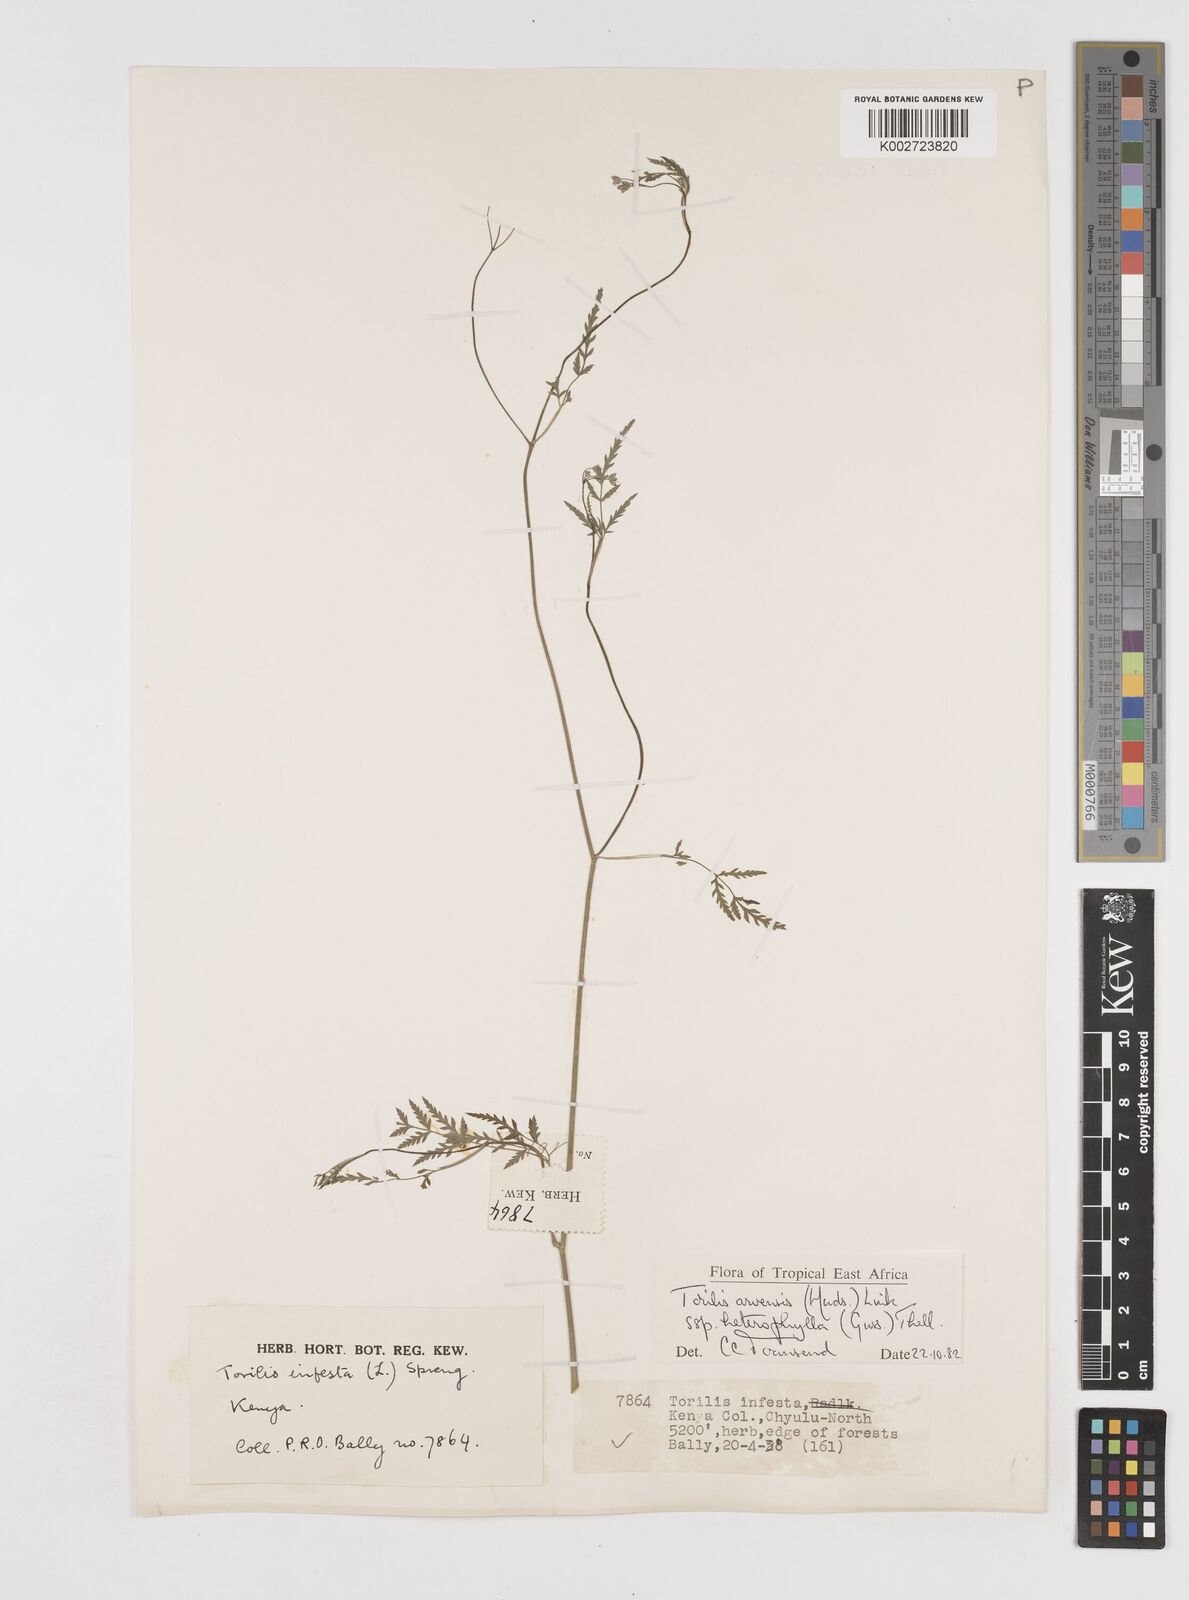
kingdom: Plantae
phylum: Tracheophyta
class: Magnoliopsida
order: Apiales
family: Apiaceae
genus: Torilis
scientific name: Torilis arvensis
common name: Spreading hedge-parsley
